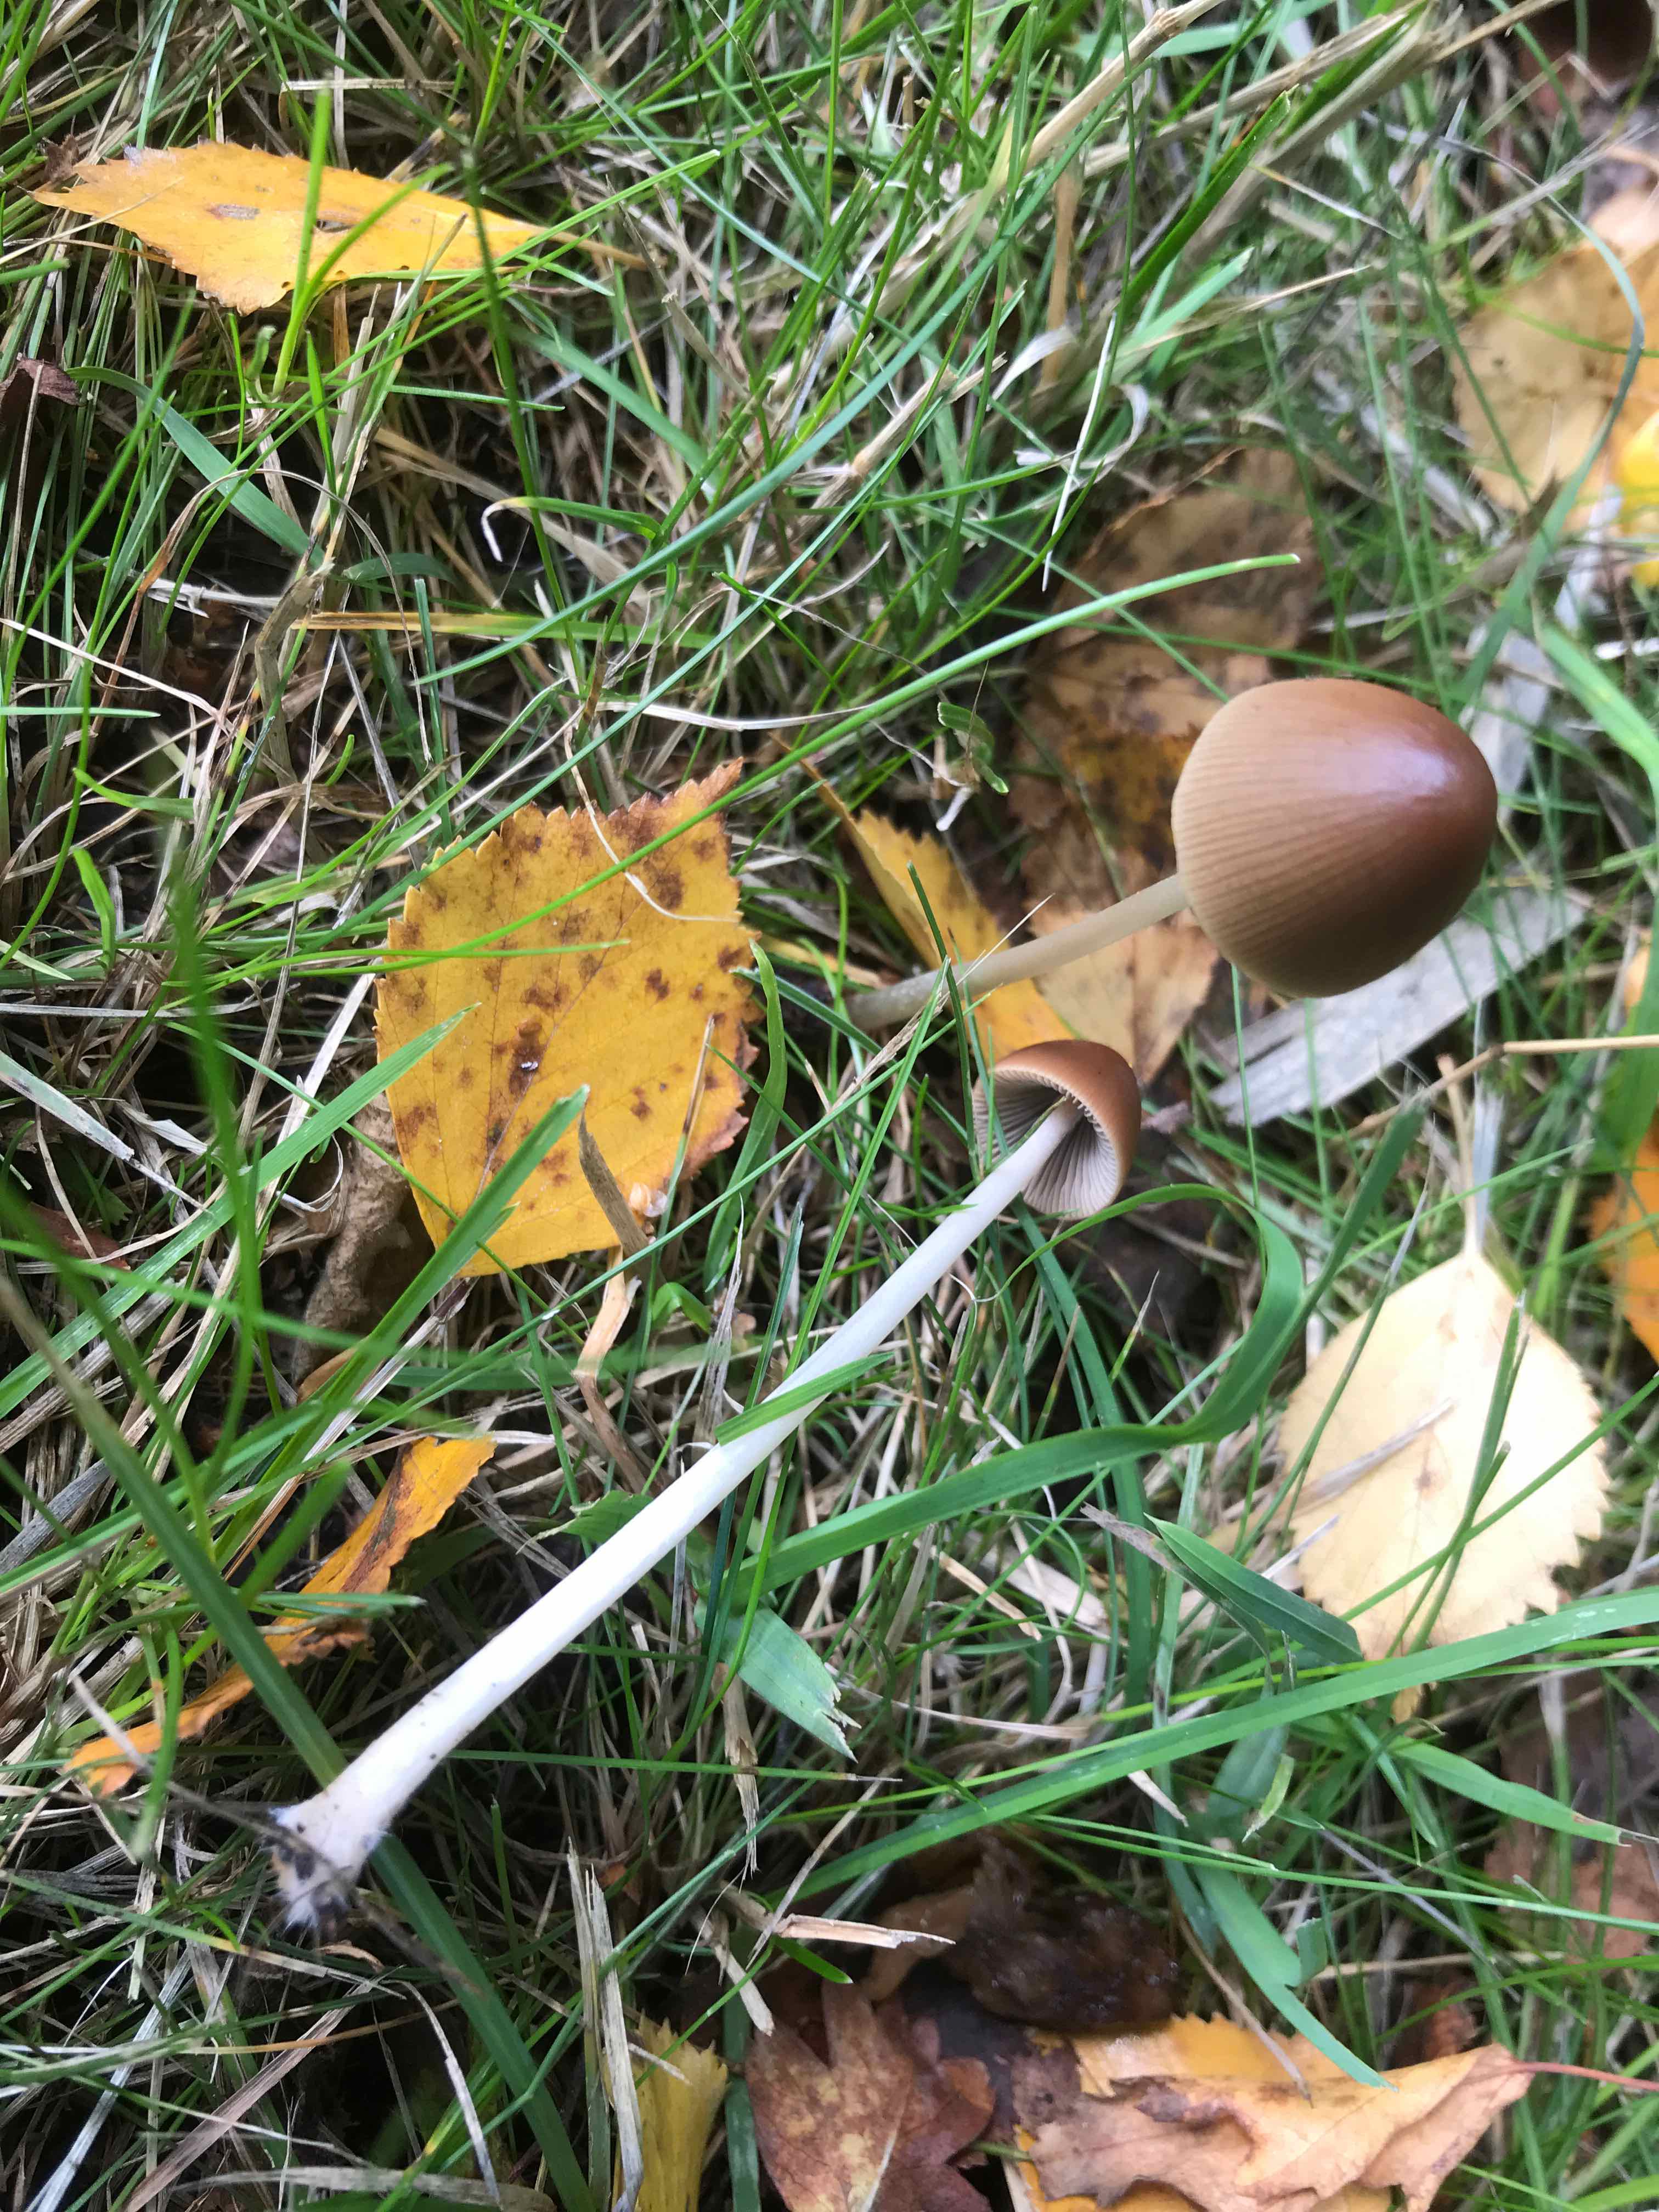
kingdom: Fungi
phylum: Basidiomycota
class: Agaricomycetes
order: Agaricales
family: Psathyrellaceae
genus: Parasola
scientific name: Parasola conopilea
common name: kegle-hjulhat
